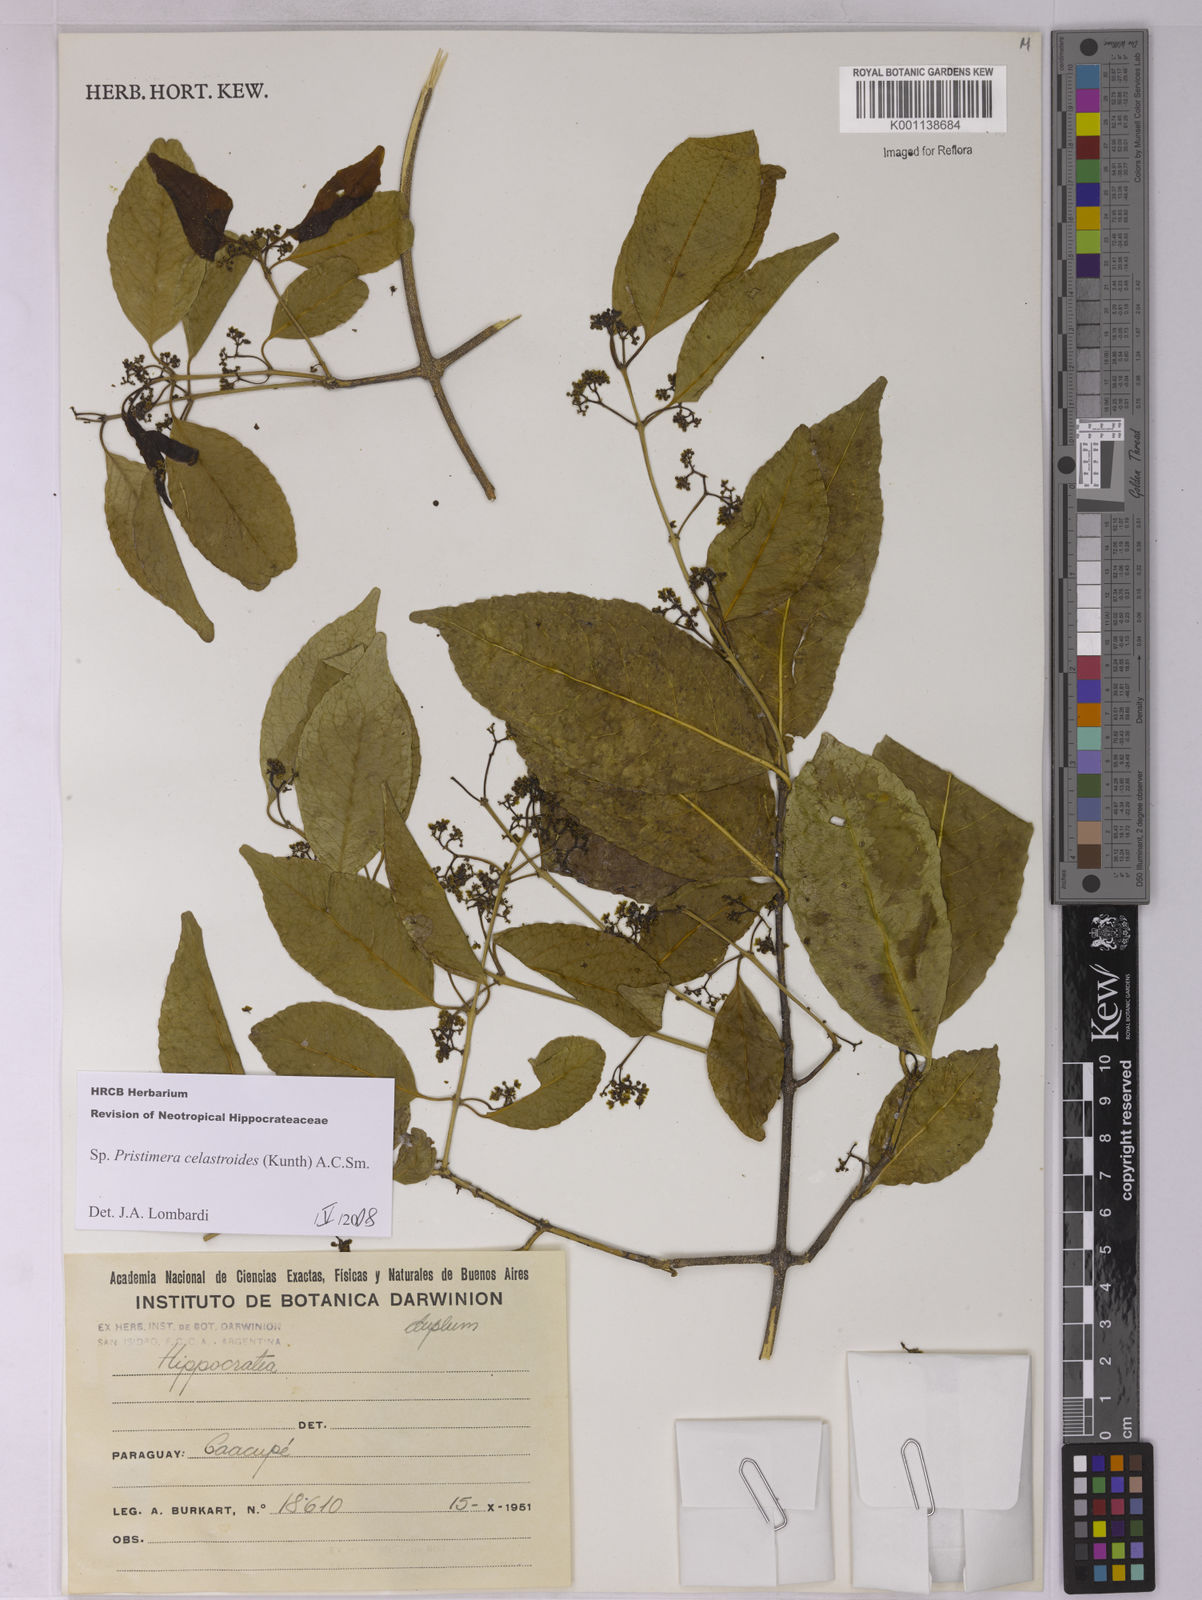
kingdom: Plantae
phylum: Tracheophyta
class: Magnoliopsida
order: Celastrales
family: Celastraceae
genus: Pristimera
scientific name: Pristimera celastroides
